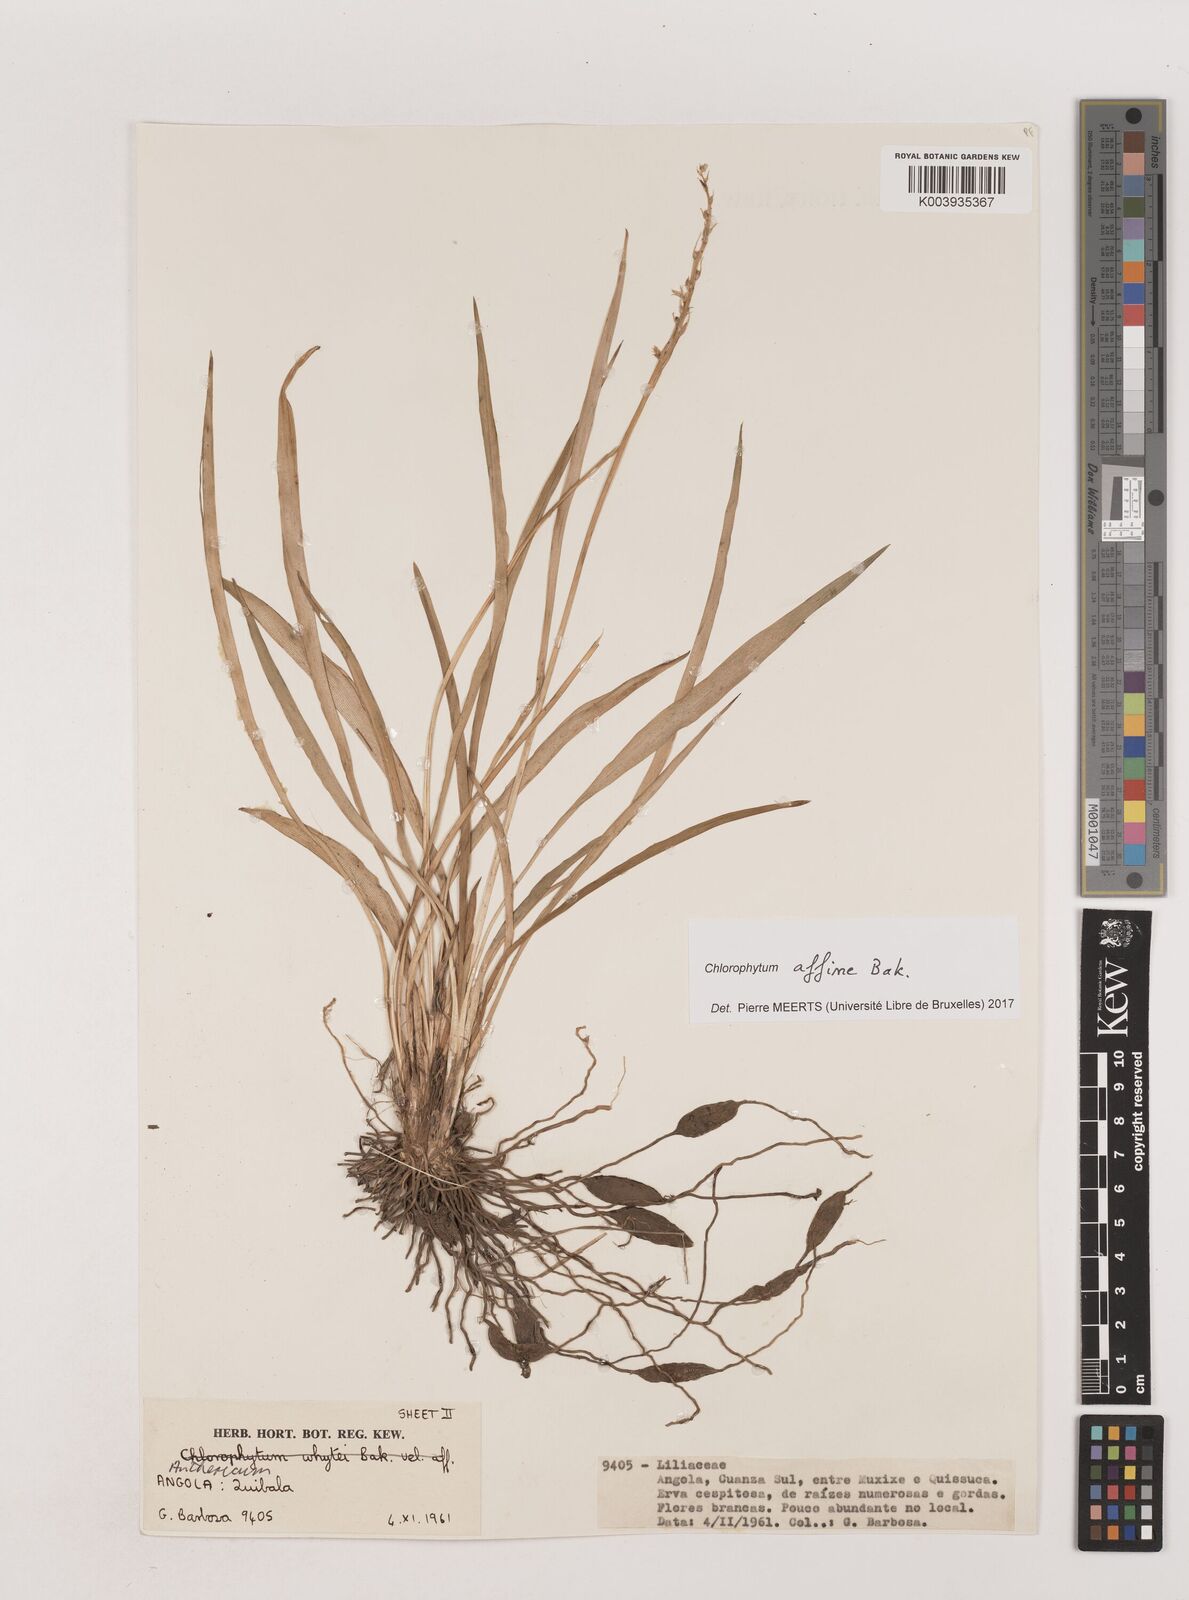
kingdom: Plantae
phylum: Tracheophyta
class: Liliopsida
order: Asparagales
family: Asparagaceae
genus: Chlorophytum
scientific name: Chlorophytum affine
